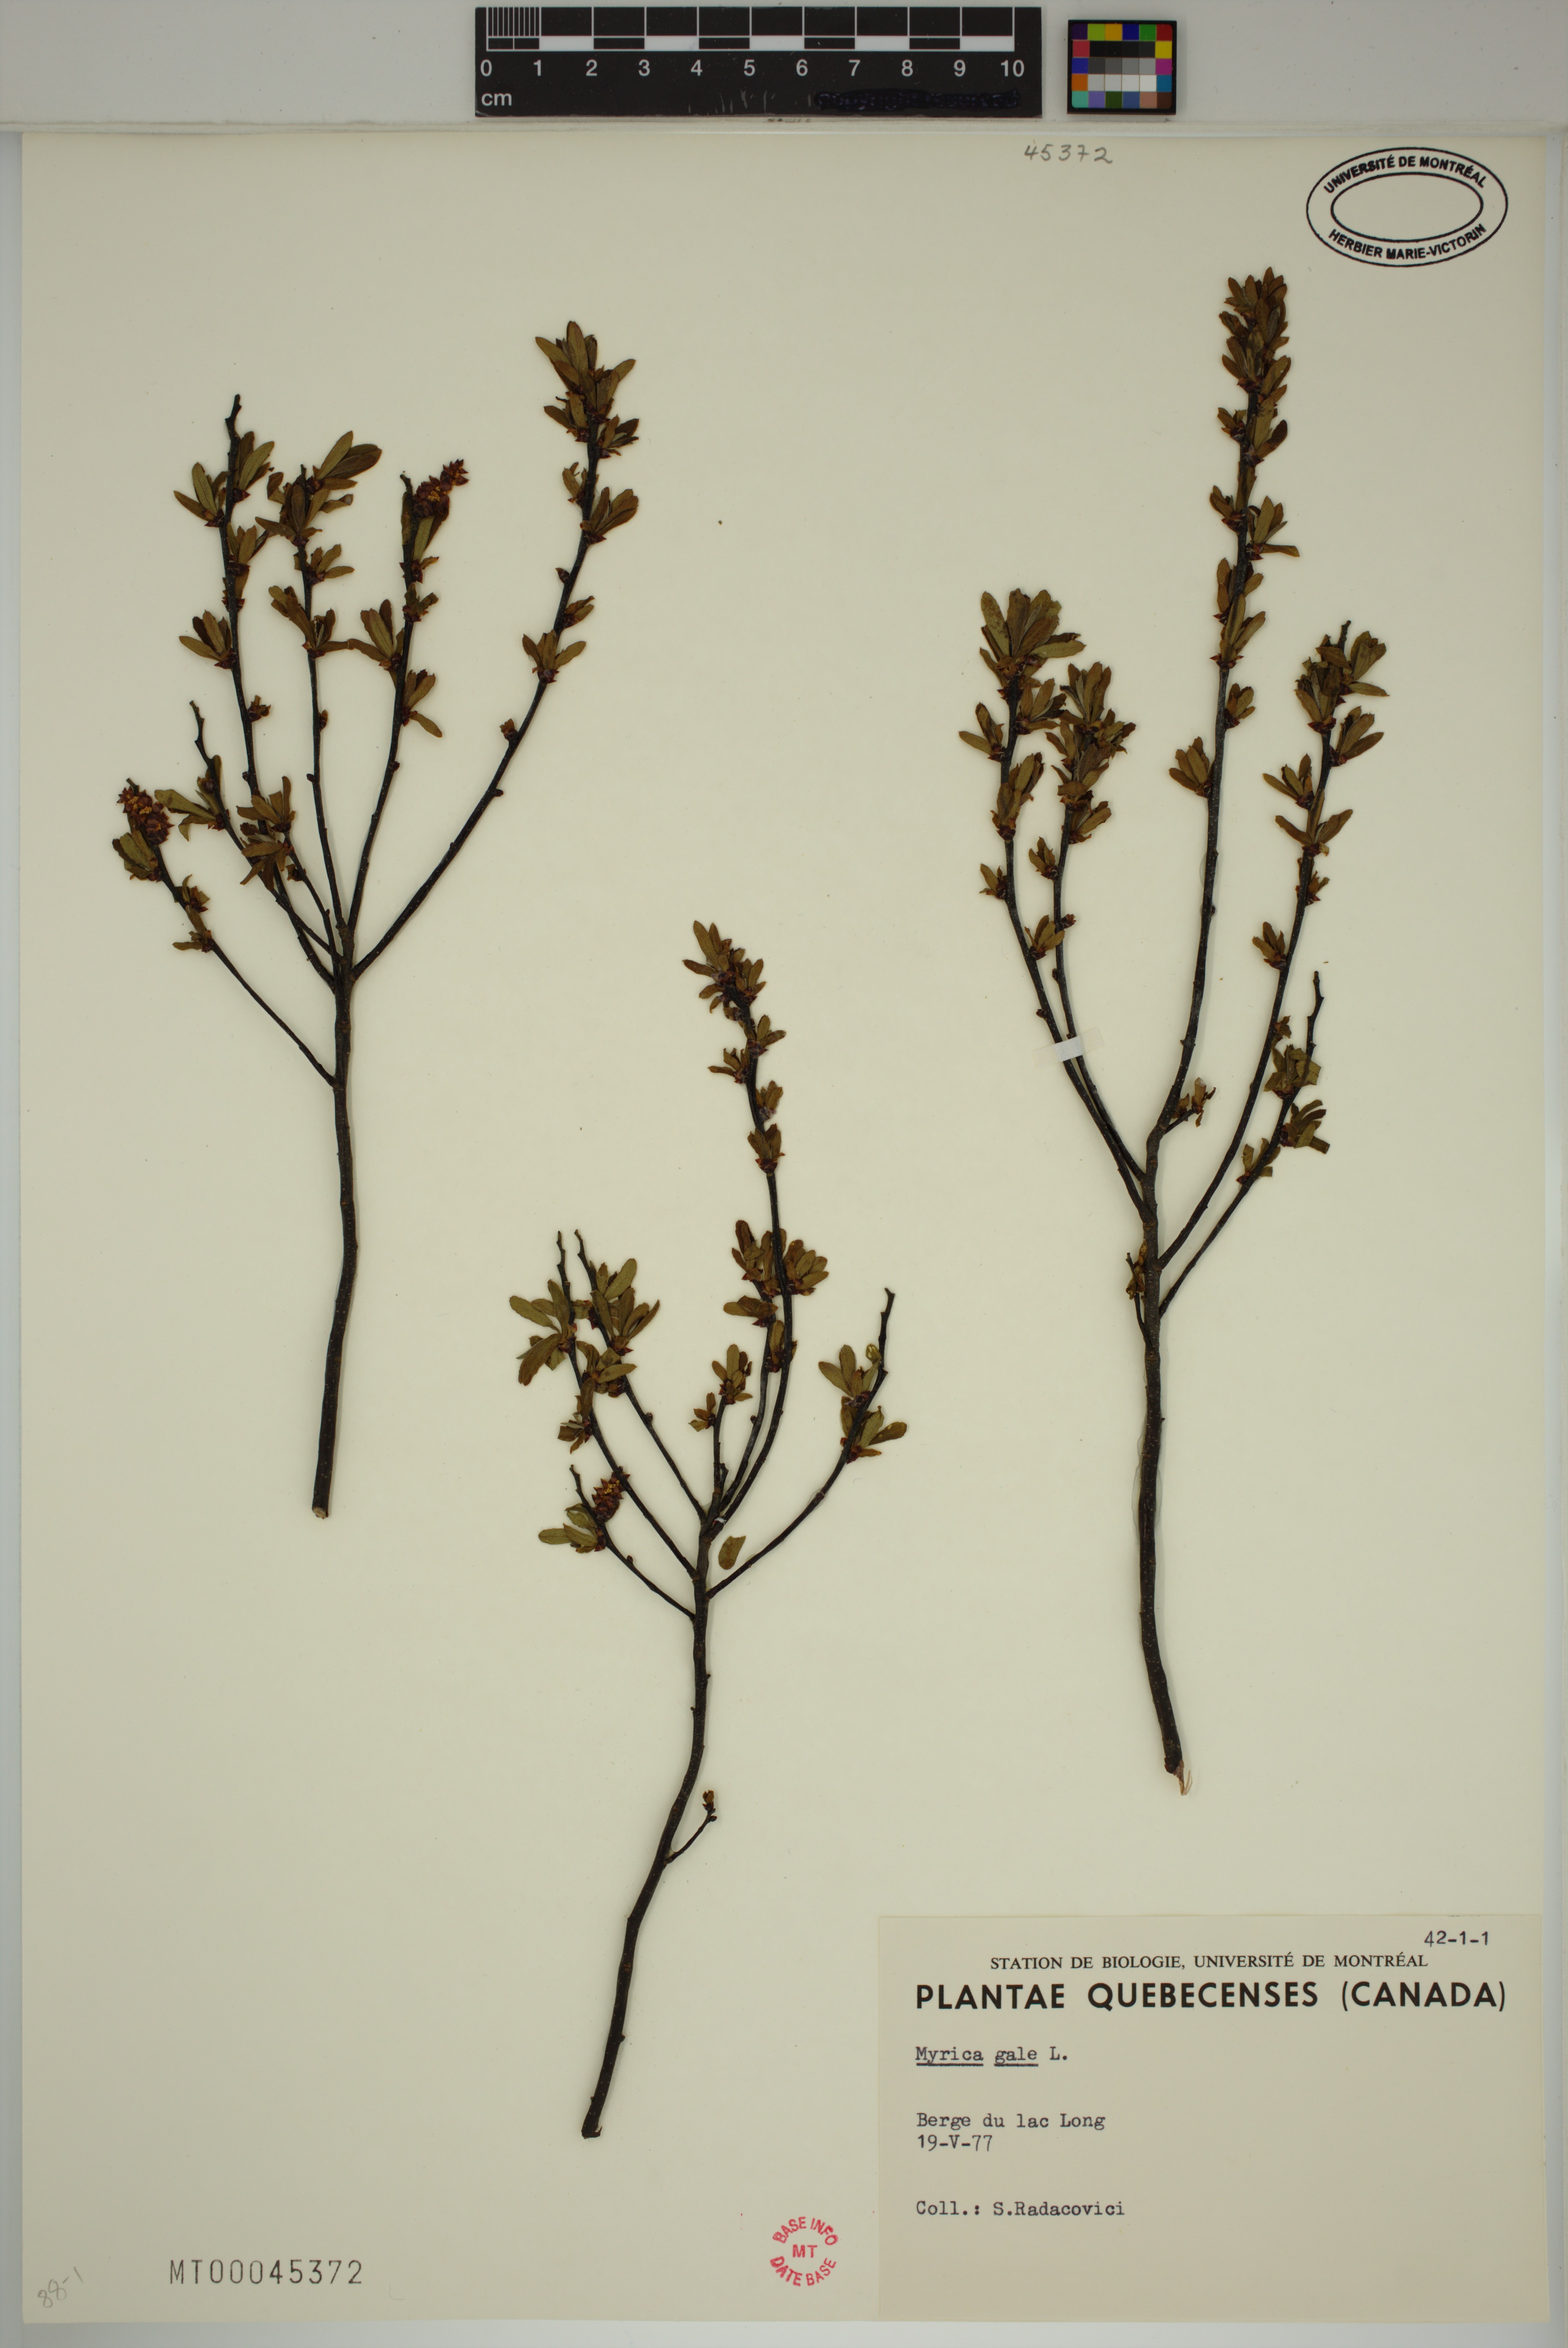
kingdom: Plantae
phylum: Tracheophyta
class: Magnoliopsida
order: Fagales
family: Myricaceae
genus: Myrica
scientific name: Myrica gale
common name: Sweet gale
